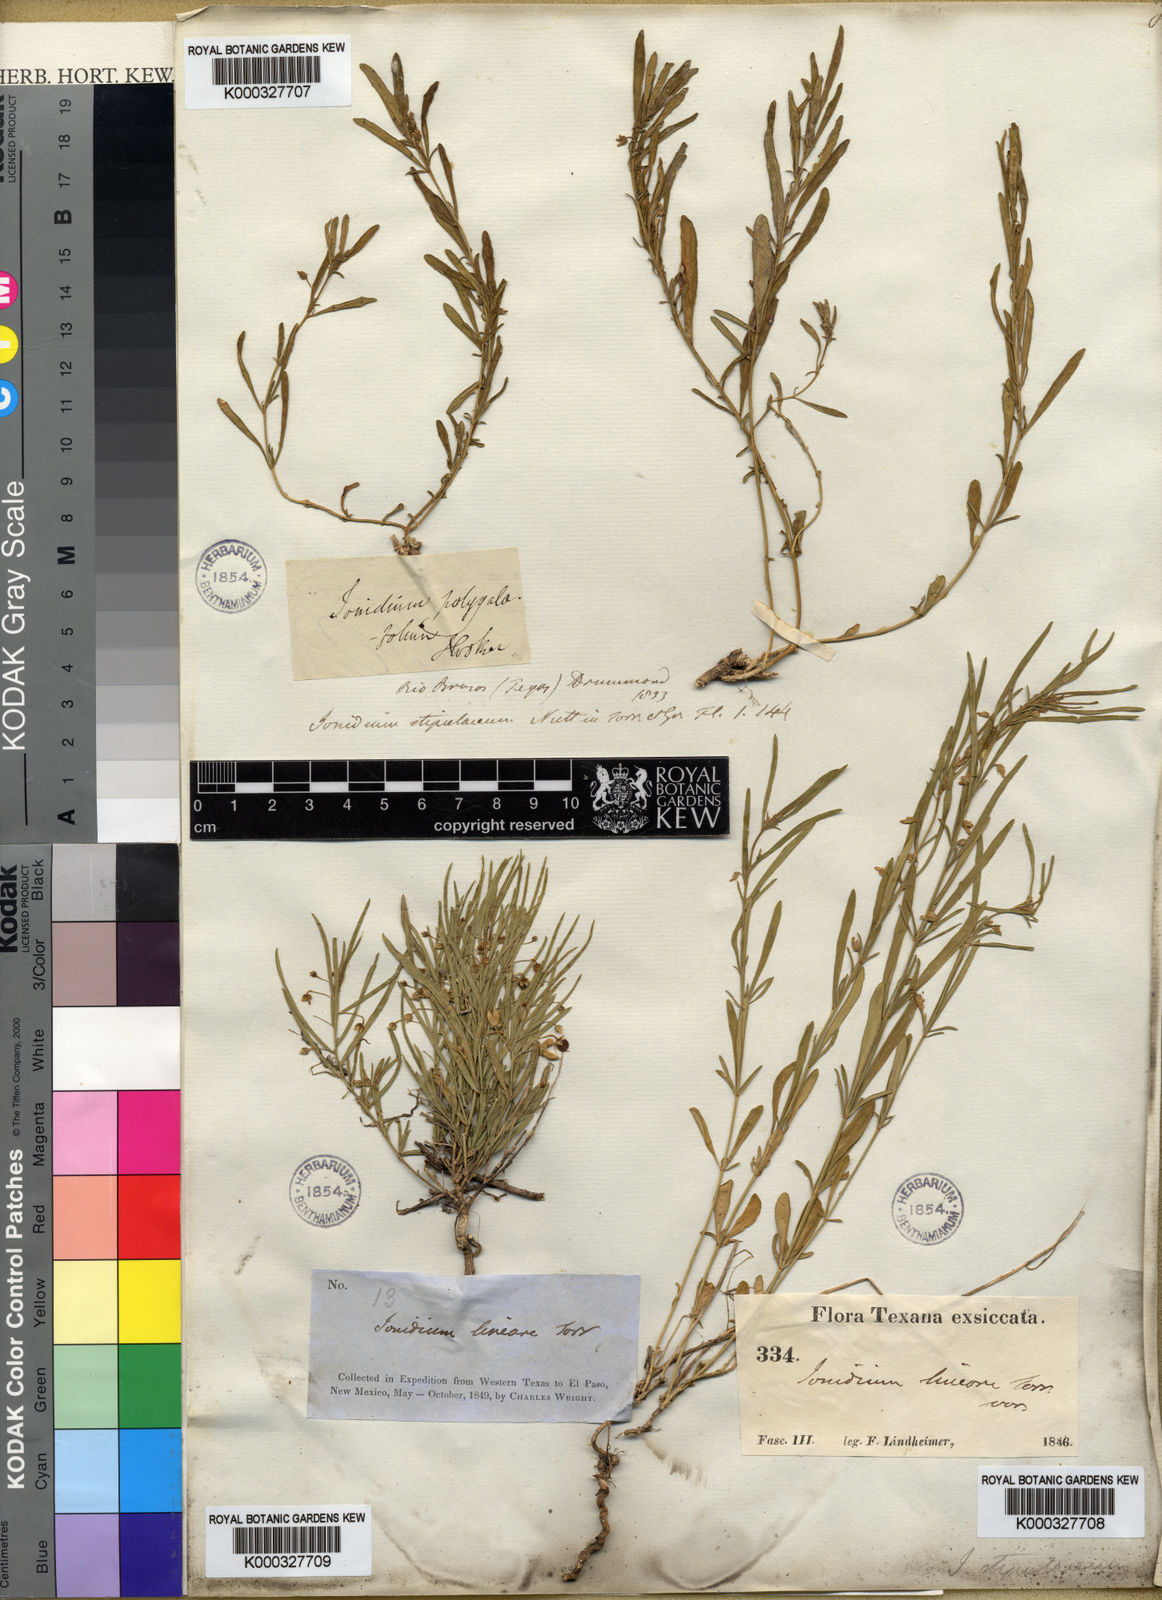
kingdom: Plantae
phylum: Tracheophyta
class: Magnoliopsida
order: Malpighiales
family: Violaceae
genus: Pombalia
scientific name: Pombalia verticillata
